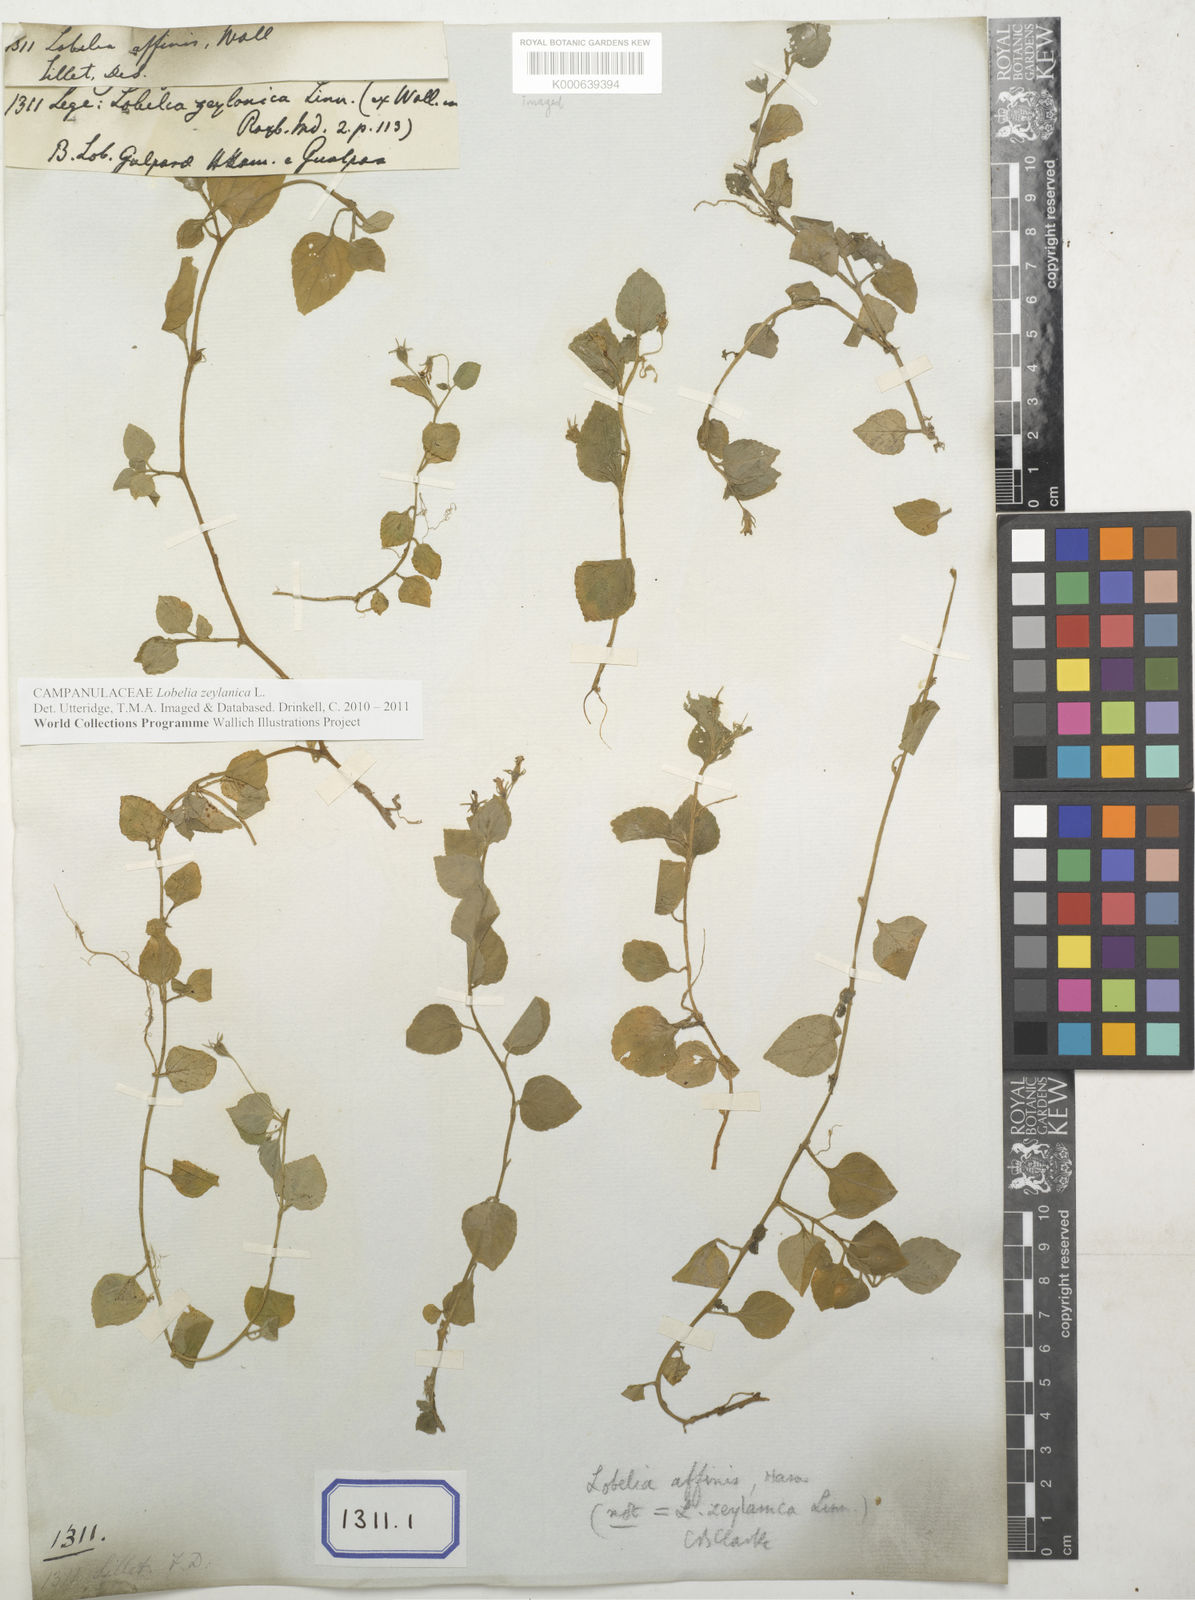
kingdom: Plantae
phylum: Tracheophyta
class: Magnoliopsida
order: Asterales
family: Campanulaceae
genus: Lobelia
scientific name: Lobelia
